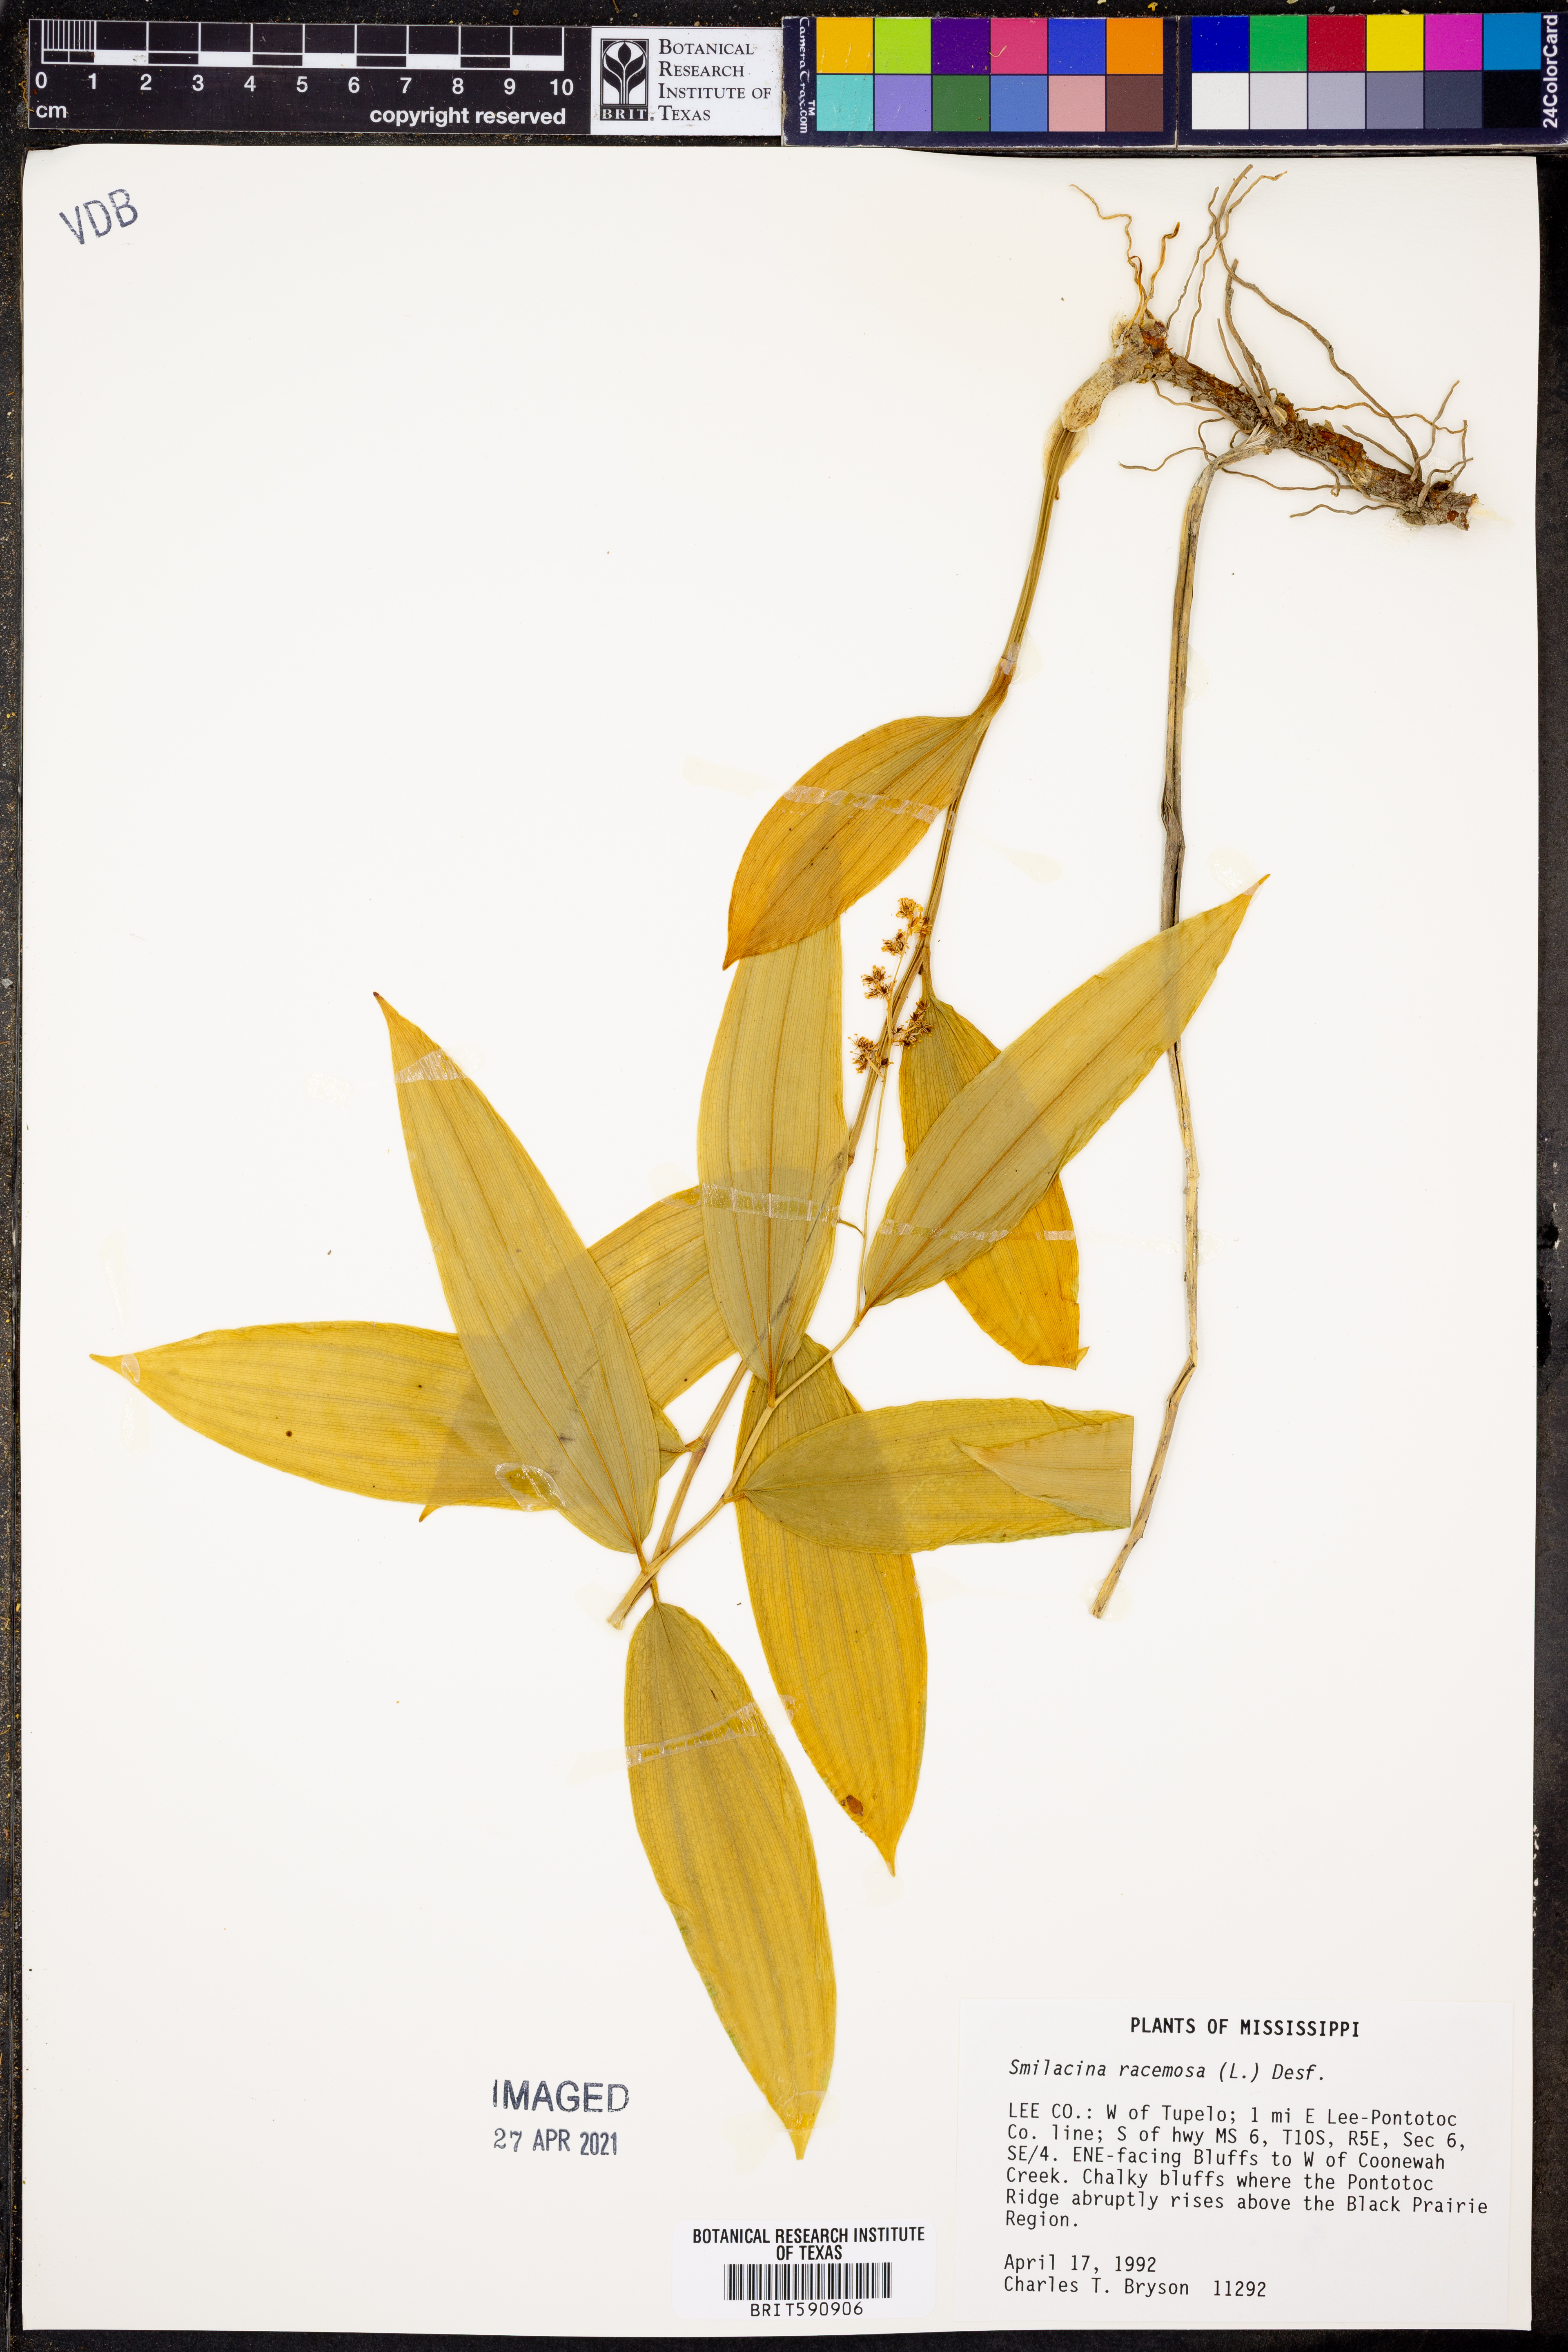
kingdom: Plantae
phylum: Tracheophyta
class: Liliopsida
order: Asparagales
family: Asparagaceae
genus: Maianthemum
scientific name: Maianthemum racemosum
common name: False spikenard
